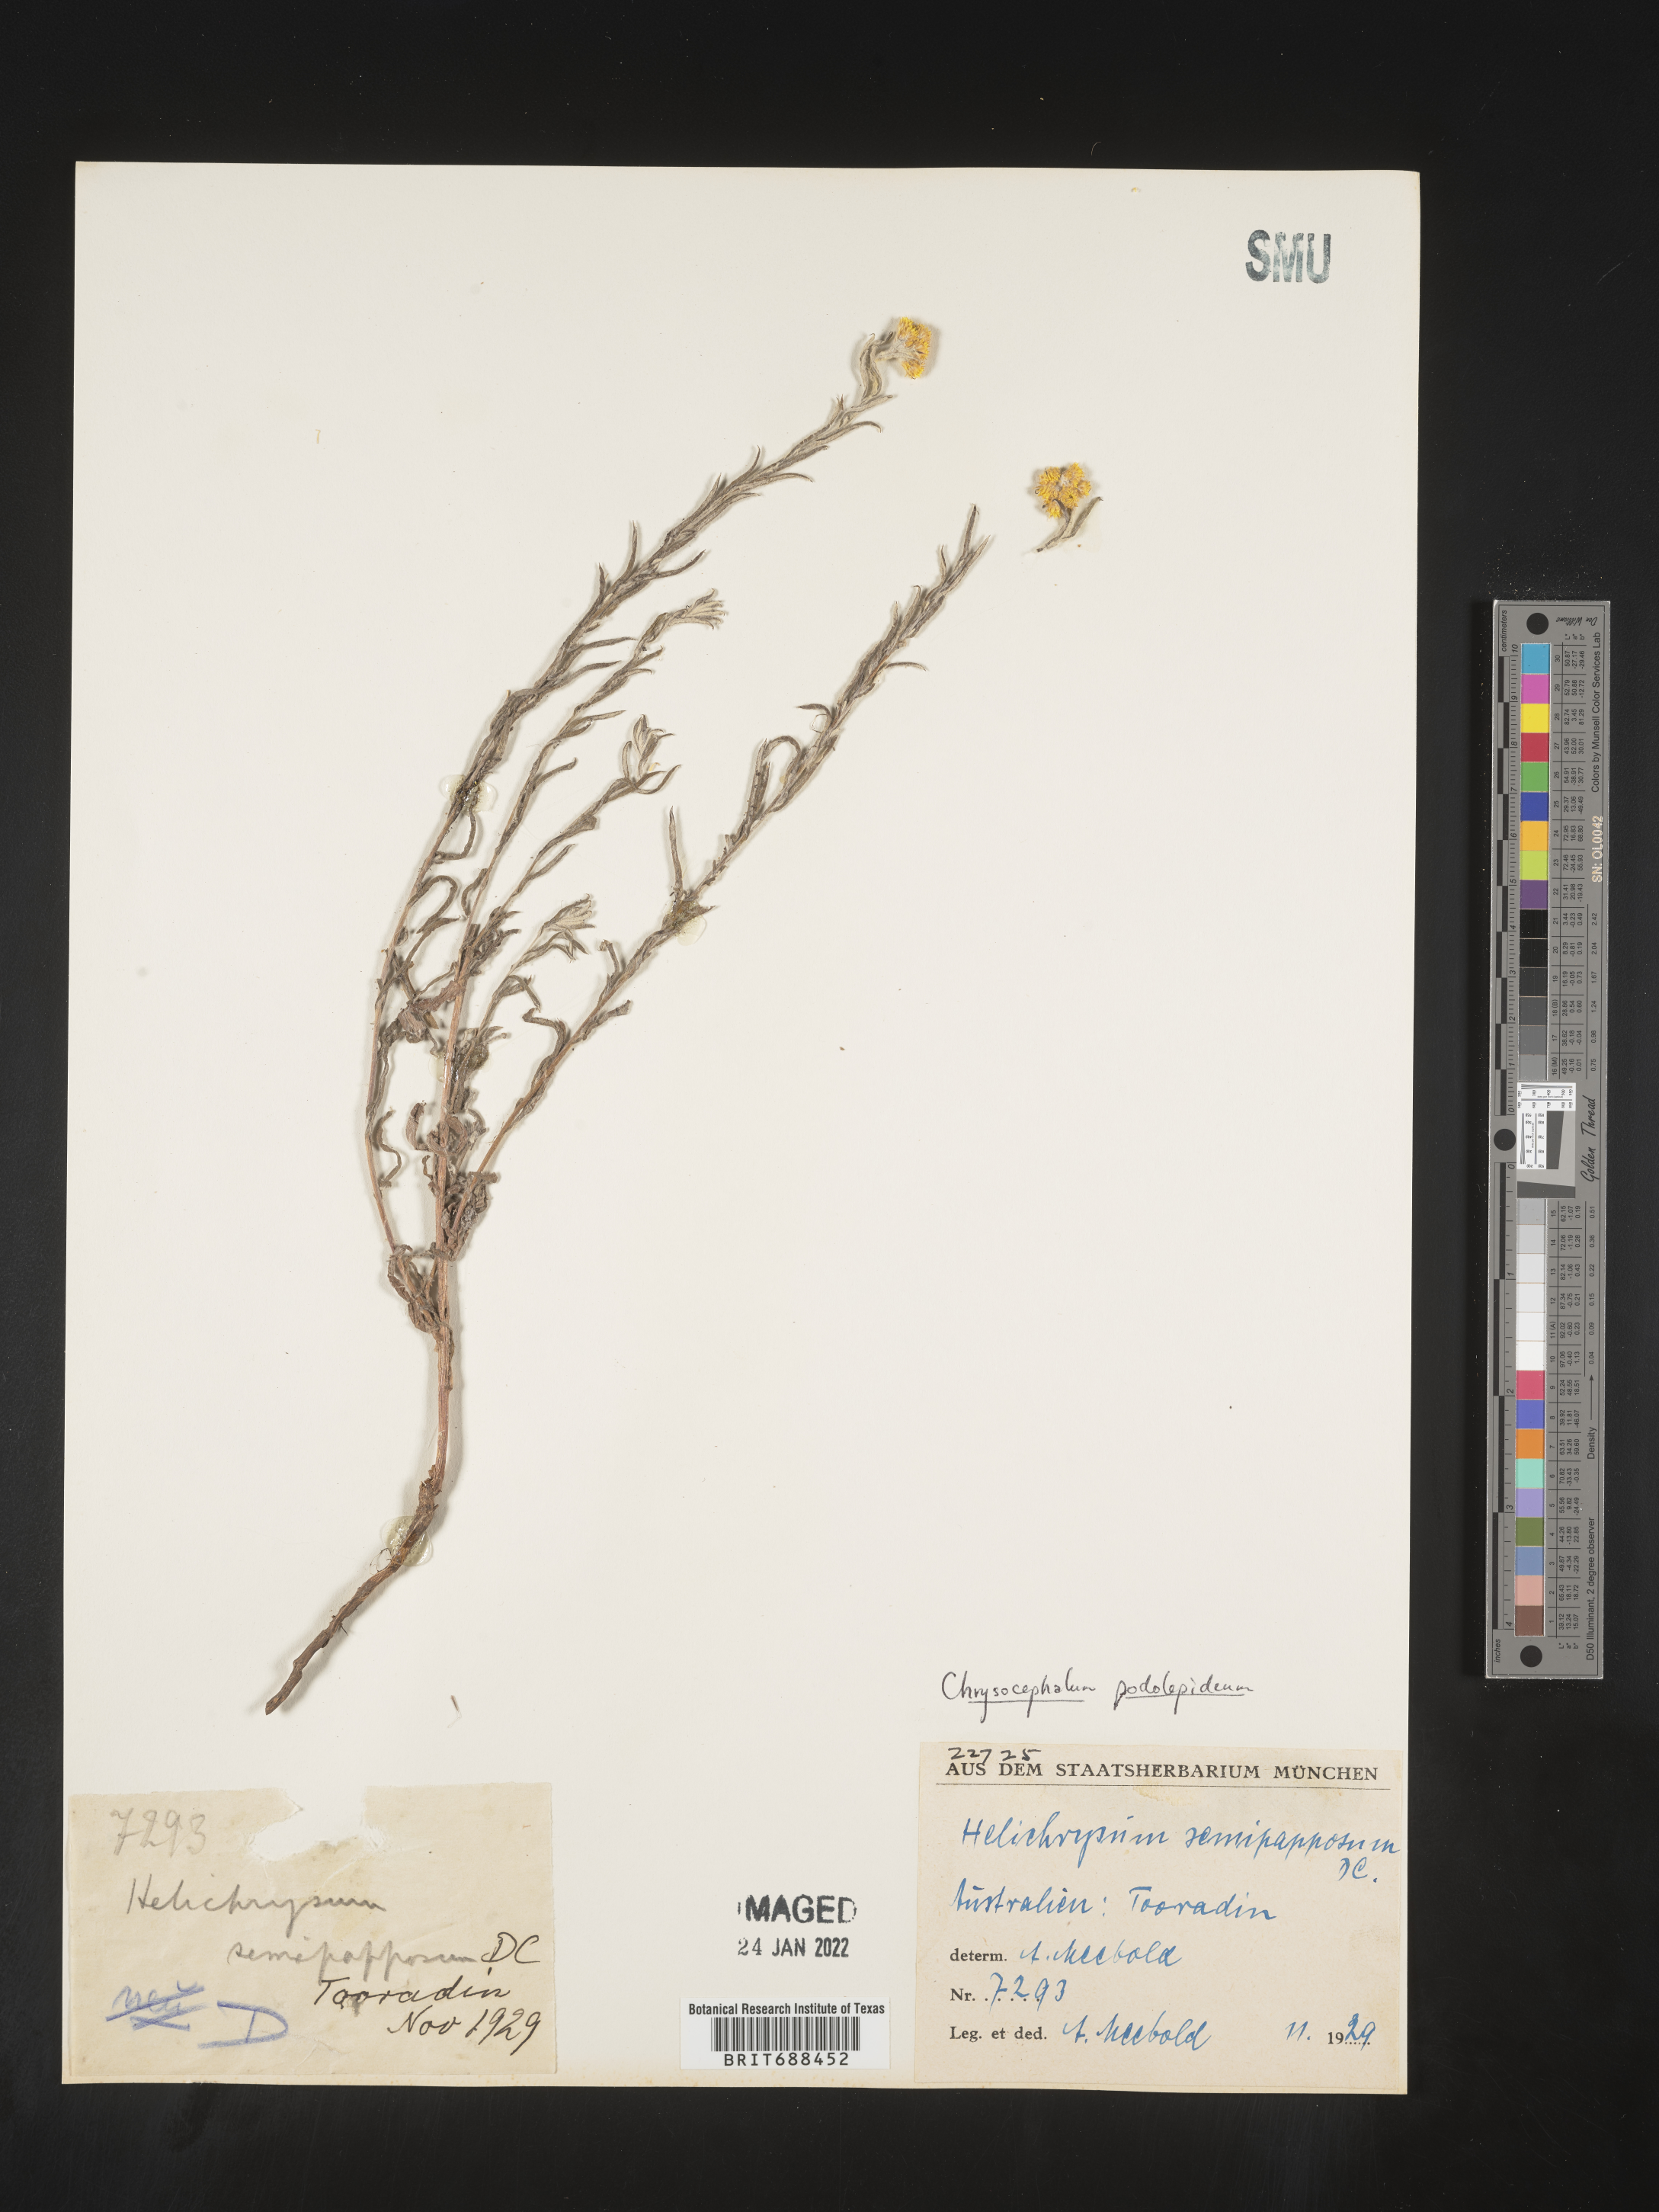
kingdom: Plantae
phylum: Tracheophyta
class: Magnoliopsida
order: Asterales
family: Asteraceae
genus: Chrysocephalum
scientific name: Chrysocephalum
